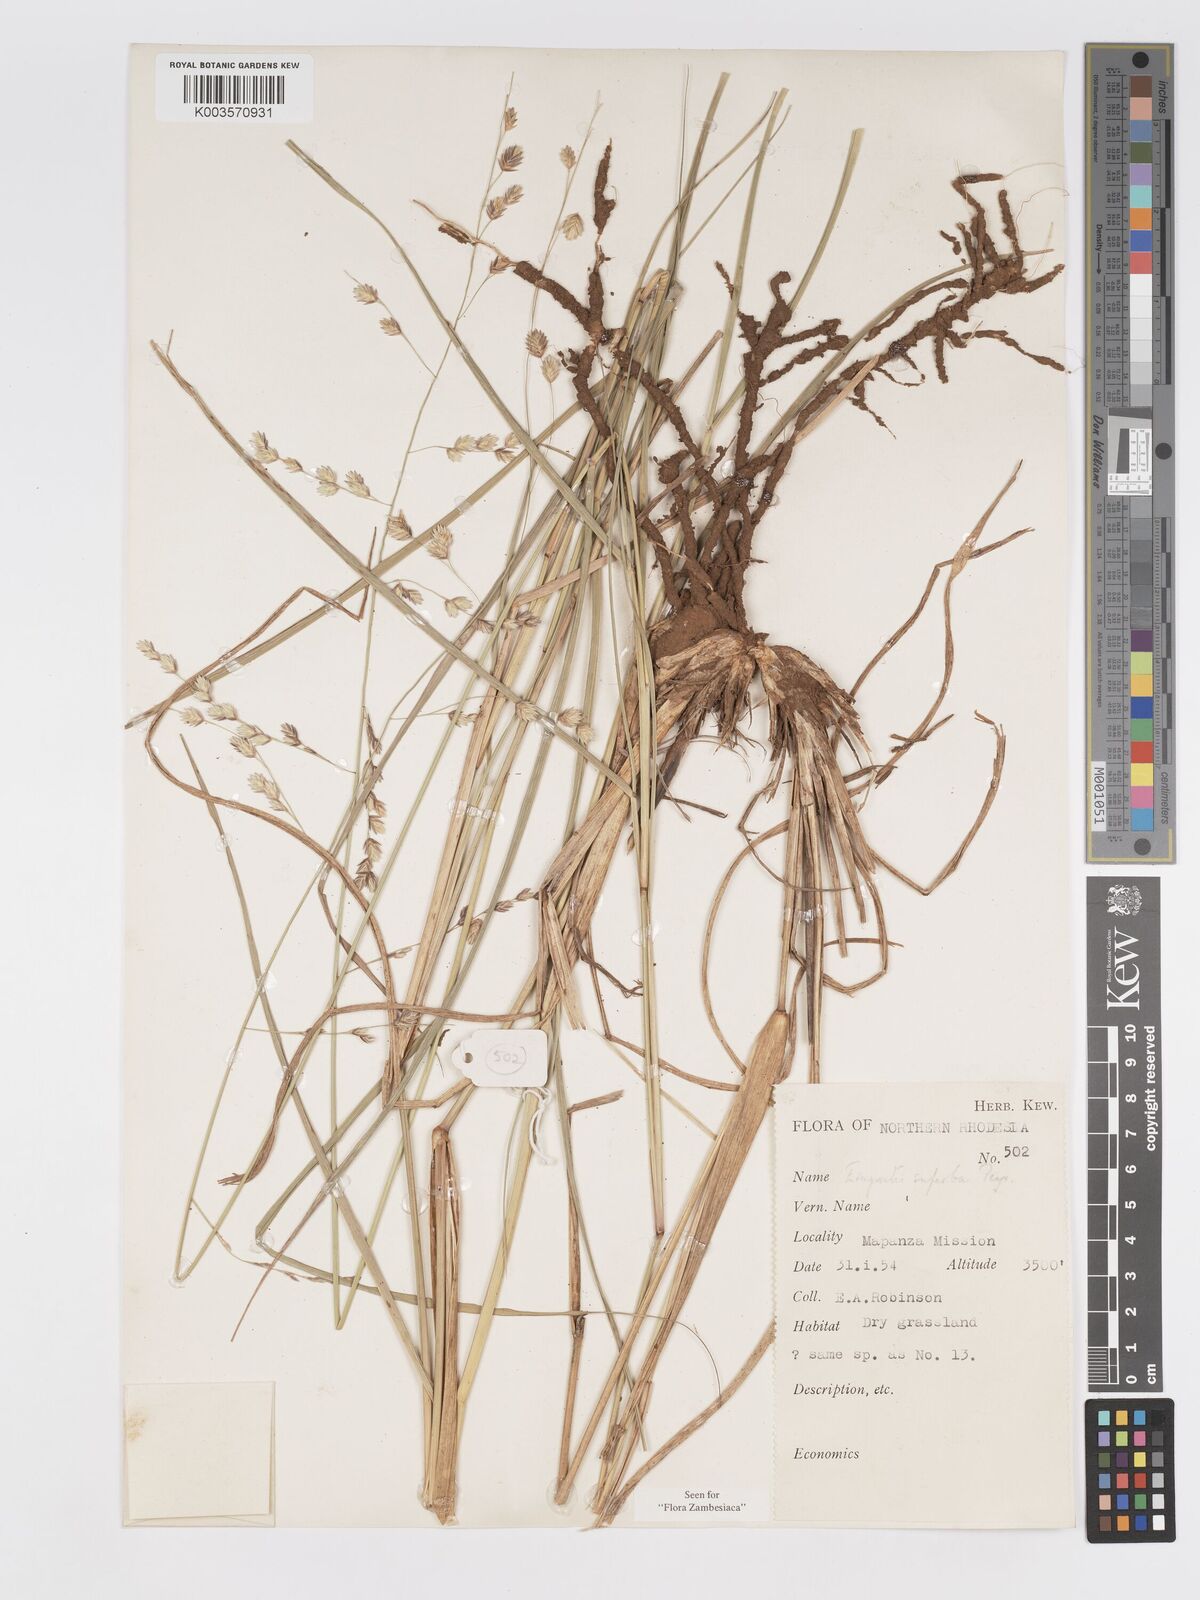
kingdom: Plantae
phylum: Tracheophyta
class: Liliopsida
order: Poales
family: Poaceae
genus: Eragrostis
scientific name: Eragrostis superba
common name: Wilman lovegrass
